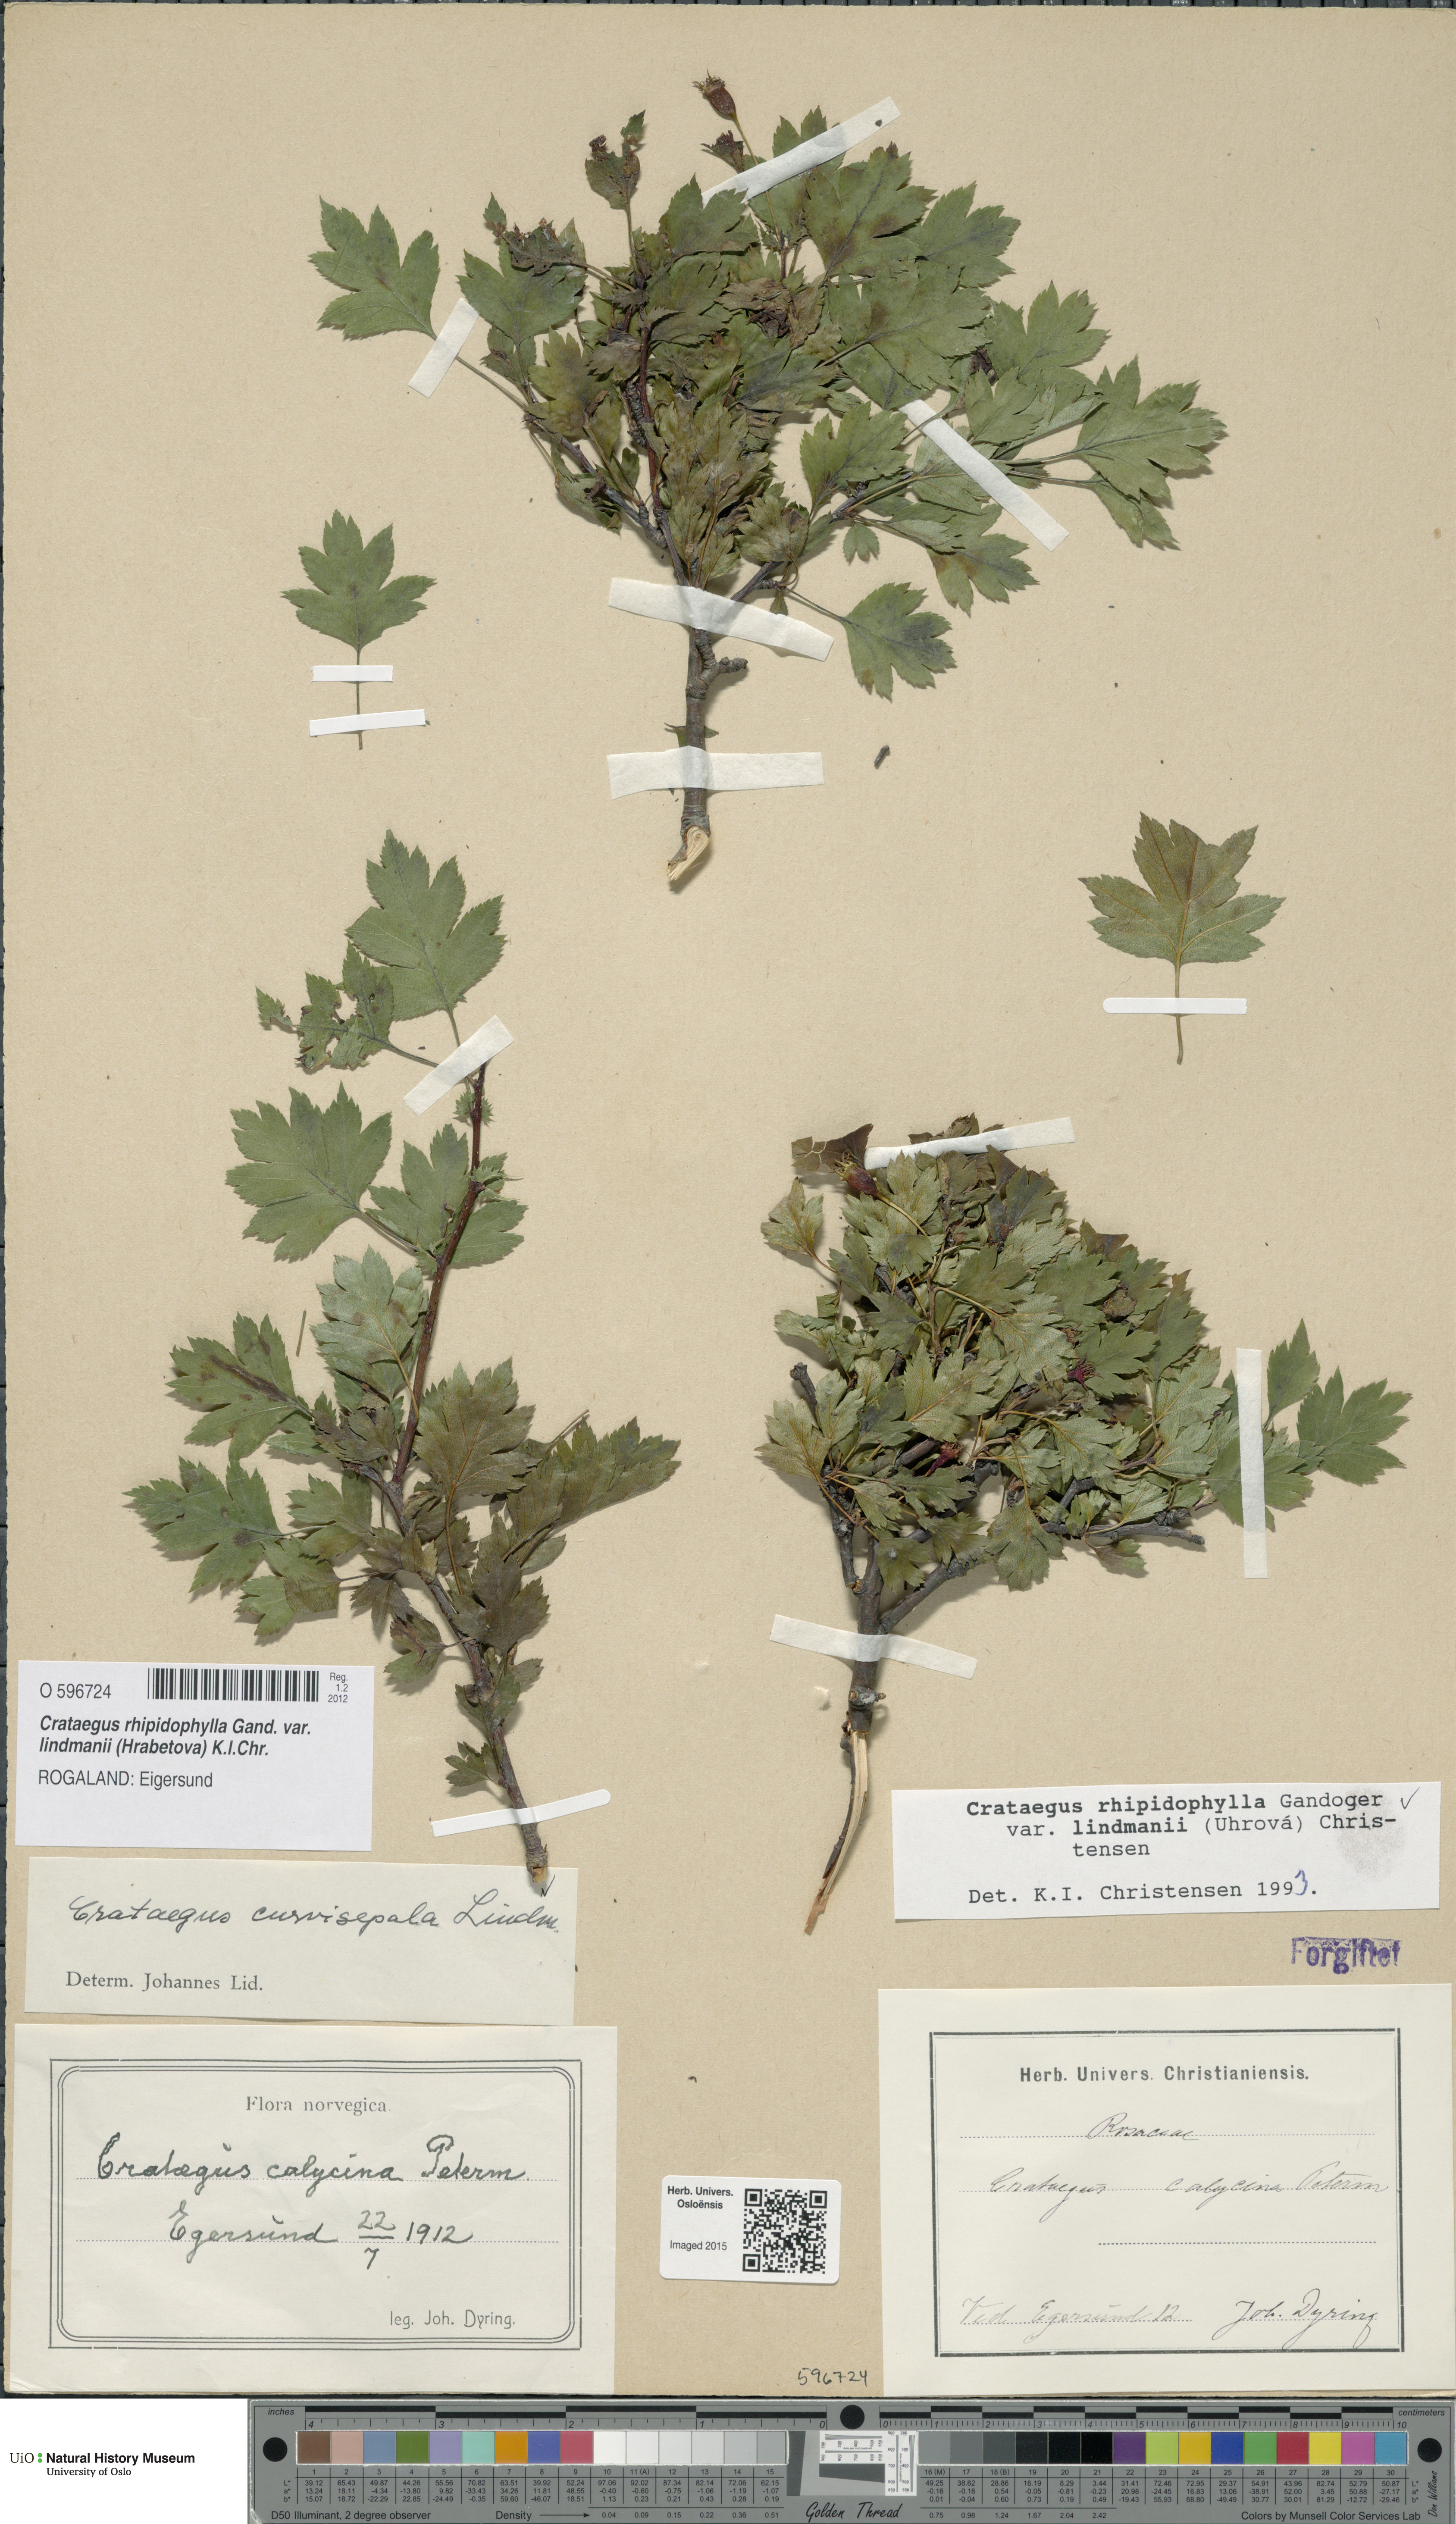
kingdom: Plantae
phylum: Tracheophyta
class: Magnoliopsida
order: Rosales
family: Rosaceae
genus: Crataegus
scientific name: Crataegus lindmanii
